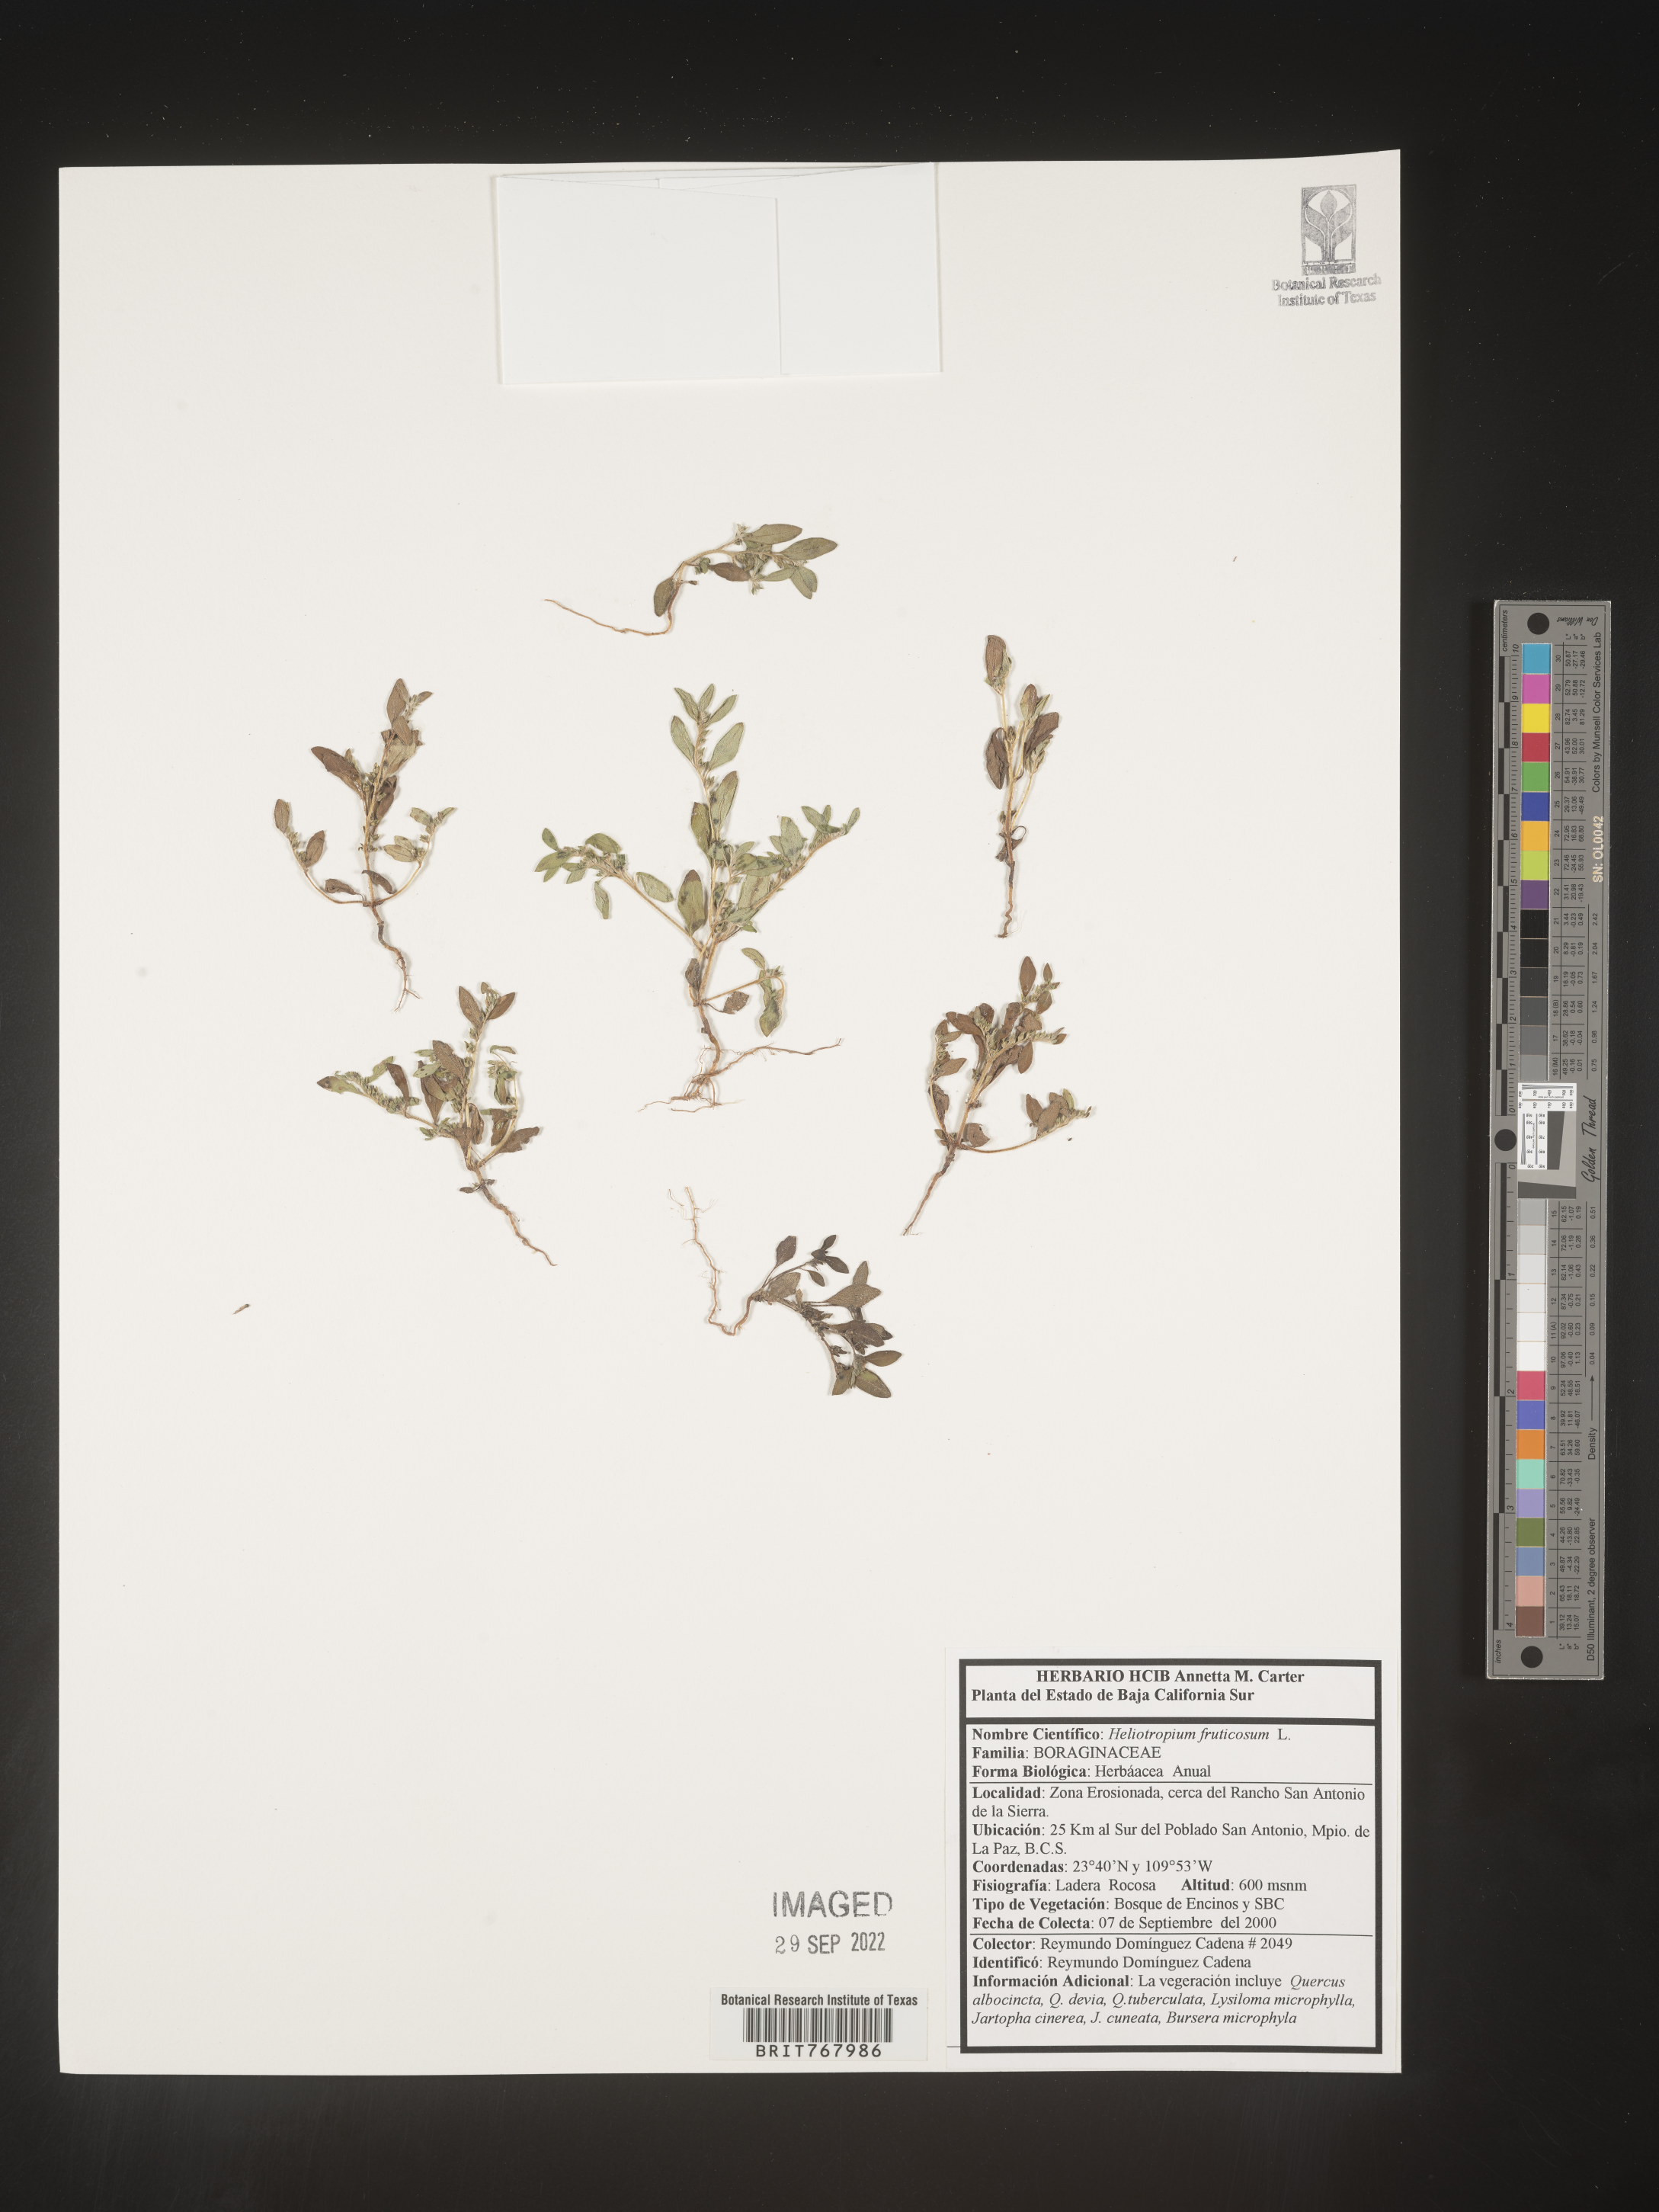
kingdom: Plantae
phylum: Tracheophyta
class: Magnoliopsida
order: Boraginales
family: Heliotropiaceae
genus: Heliotropium
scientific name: Heliotropium
